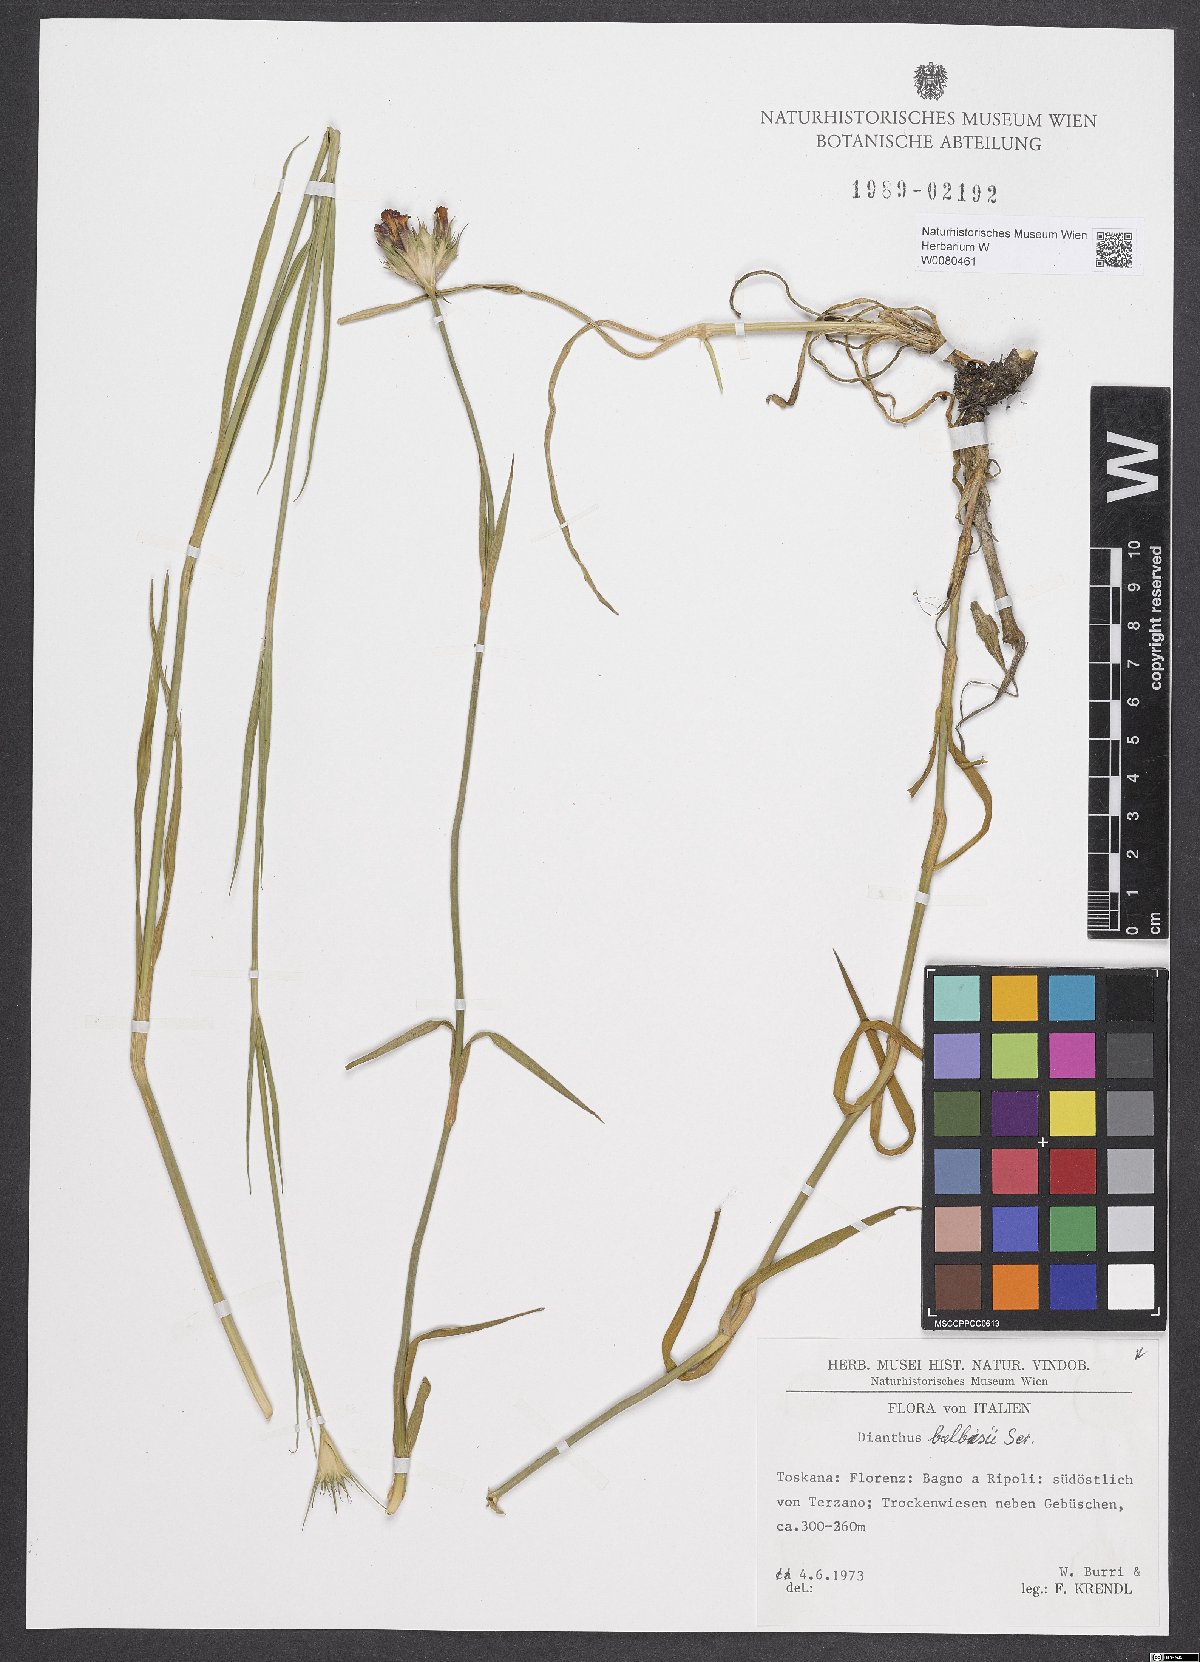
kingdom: Plantae
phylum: Tracheophyta
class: Magnoliopsida
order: Caryophyllales
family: Caryophyllaceae
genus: Dianthus
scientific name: Dianthus balbisii
